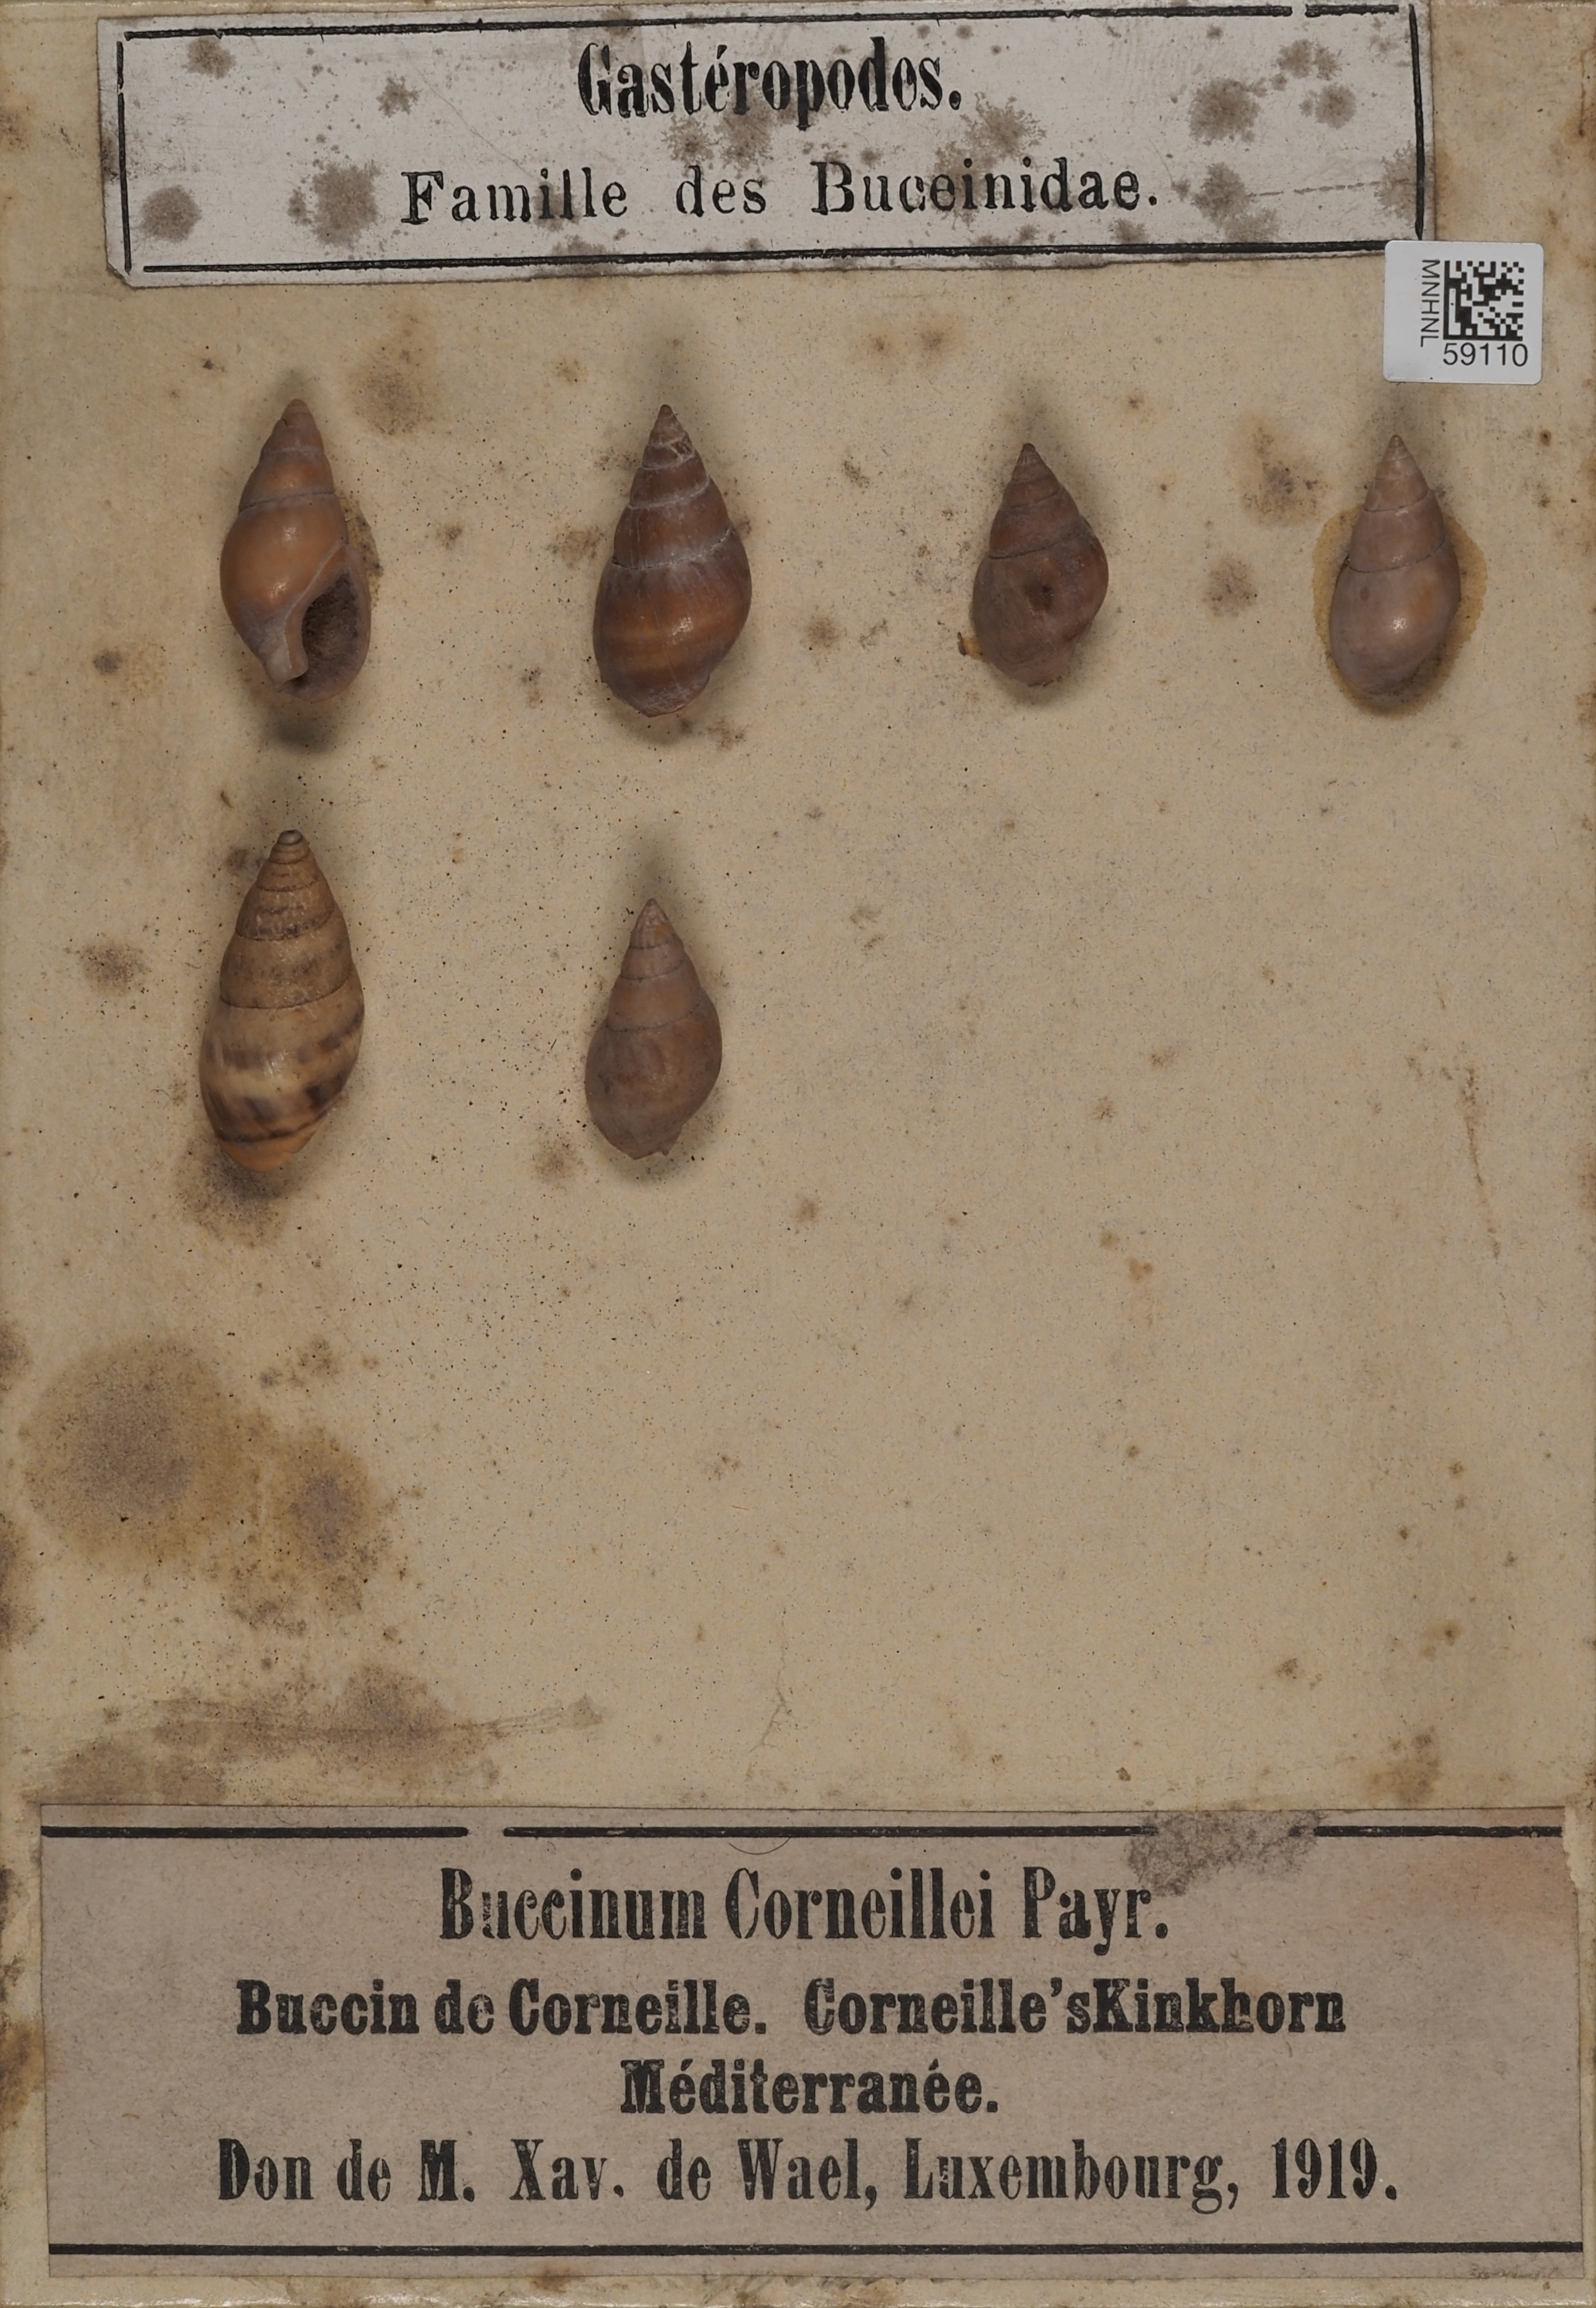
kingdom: Animalia
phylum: Mollusca
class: Gastropoda
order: Neogastropoda
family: Buccinidae
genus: Buccinum
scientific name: Buccinum
